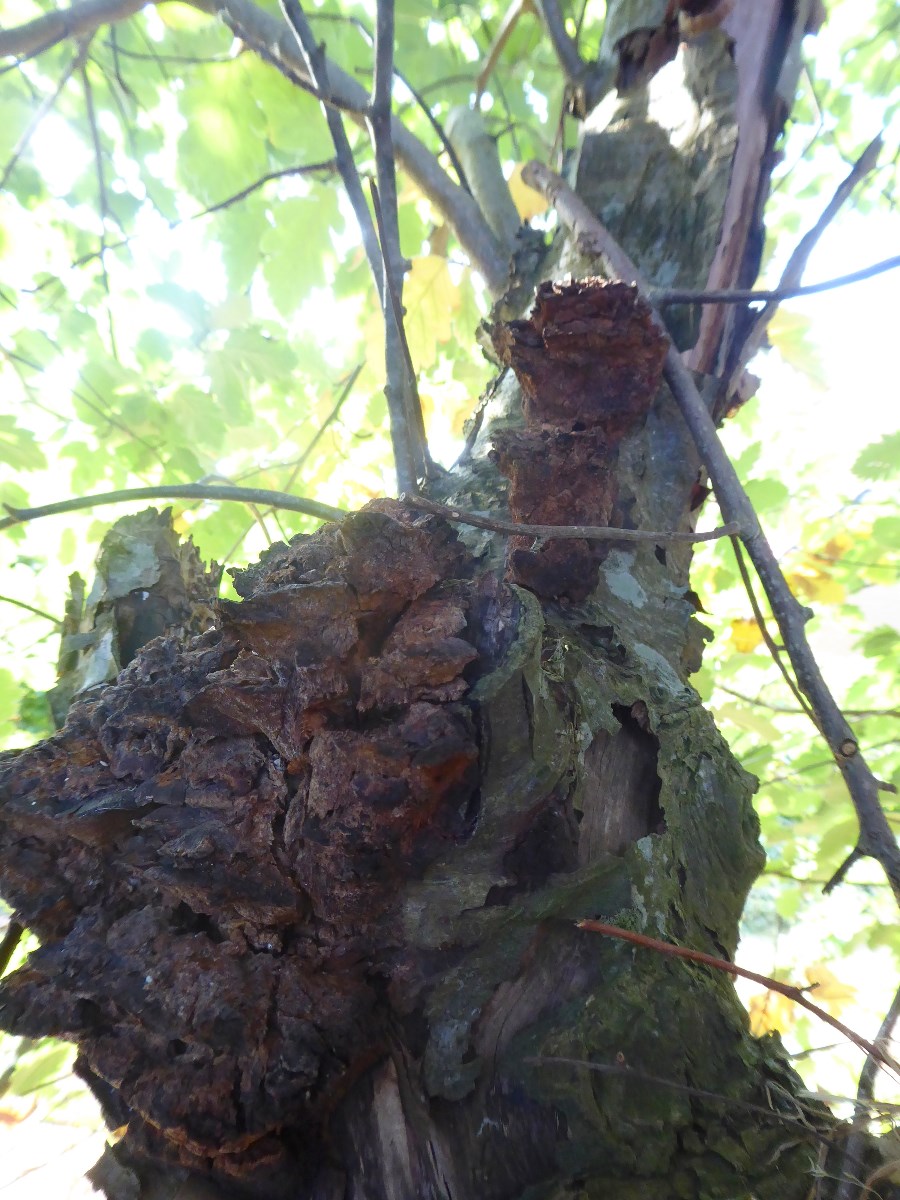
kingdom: Fungi
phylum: Basidiomycota
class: Agaricomycetes
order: Hymenochaetales
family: Hymenochaetaceae
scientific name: Hymenochaetaceae
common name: børstesvampfamilien
